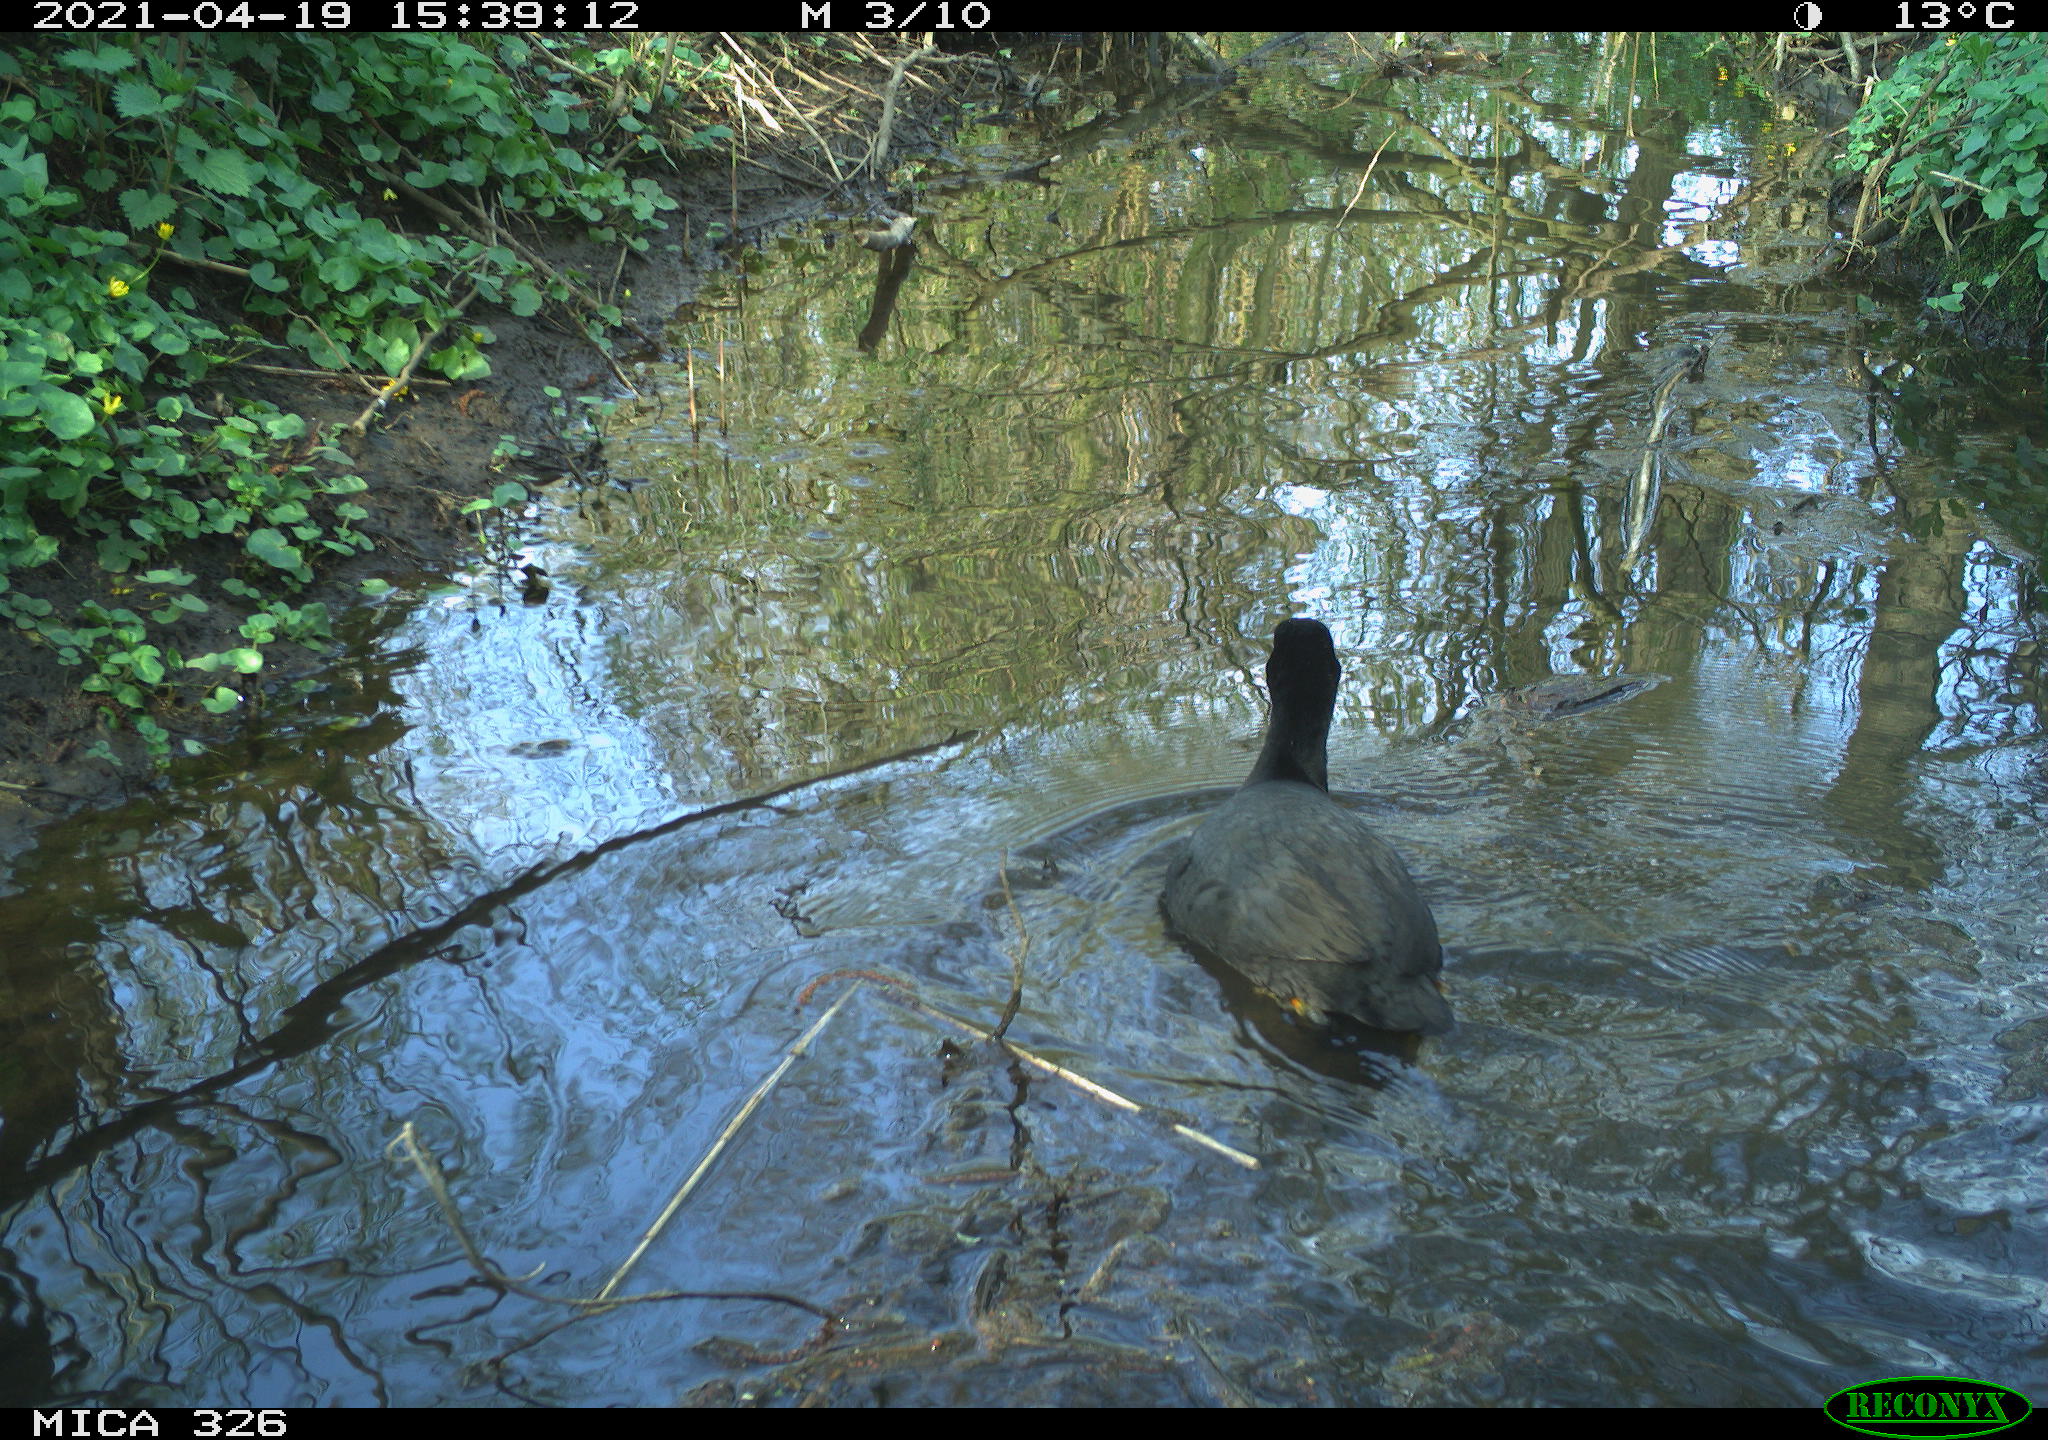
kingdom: Animalia
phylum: Chordata
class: Aves
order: Gruiformes
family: Rallidae
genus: Fulica
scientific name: Fulica atra
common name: Eurasian coot
